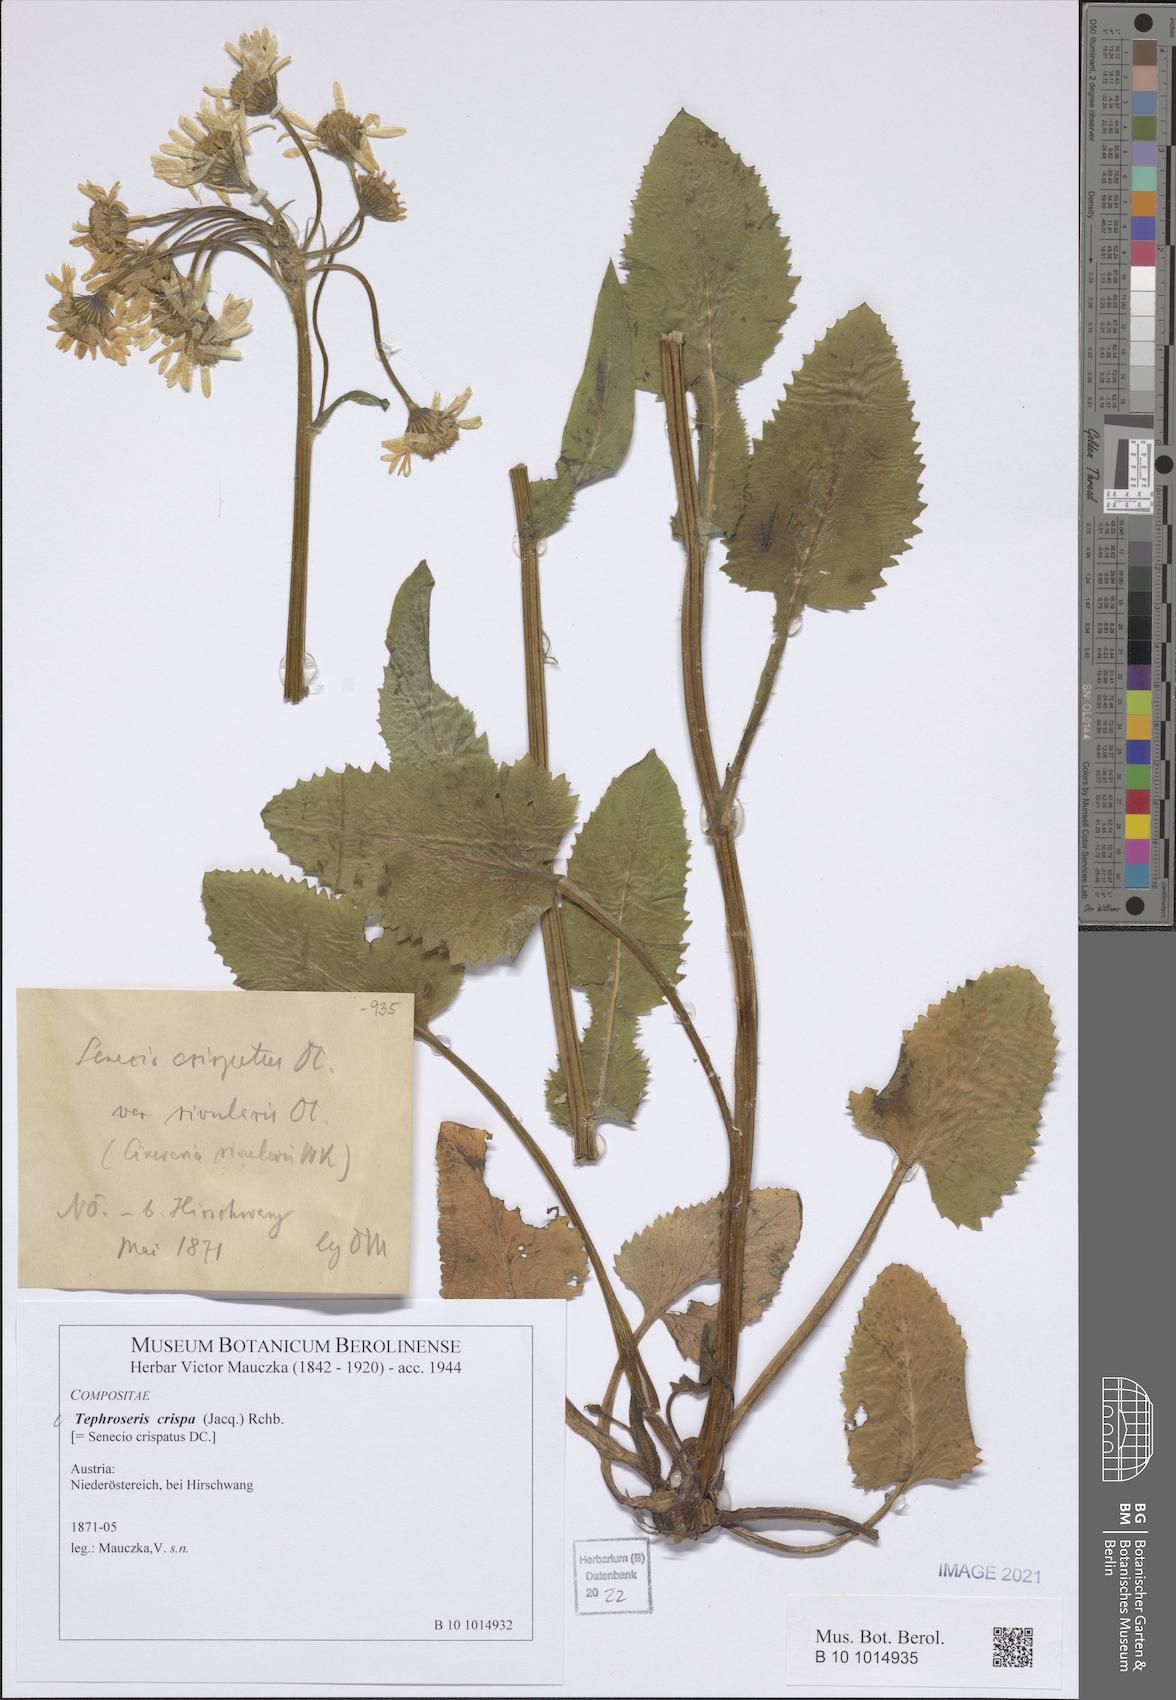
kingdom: Plantae
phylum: Tracheophyta
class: Magnoliopsida
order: Asterales
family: Asteraceae
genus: Tephroseris
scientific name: Tephroseris crispa
